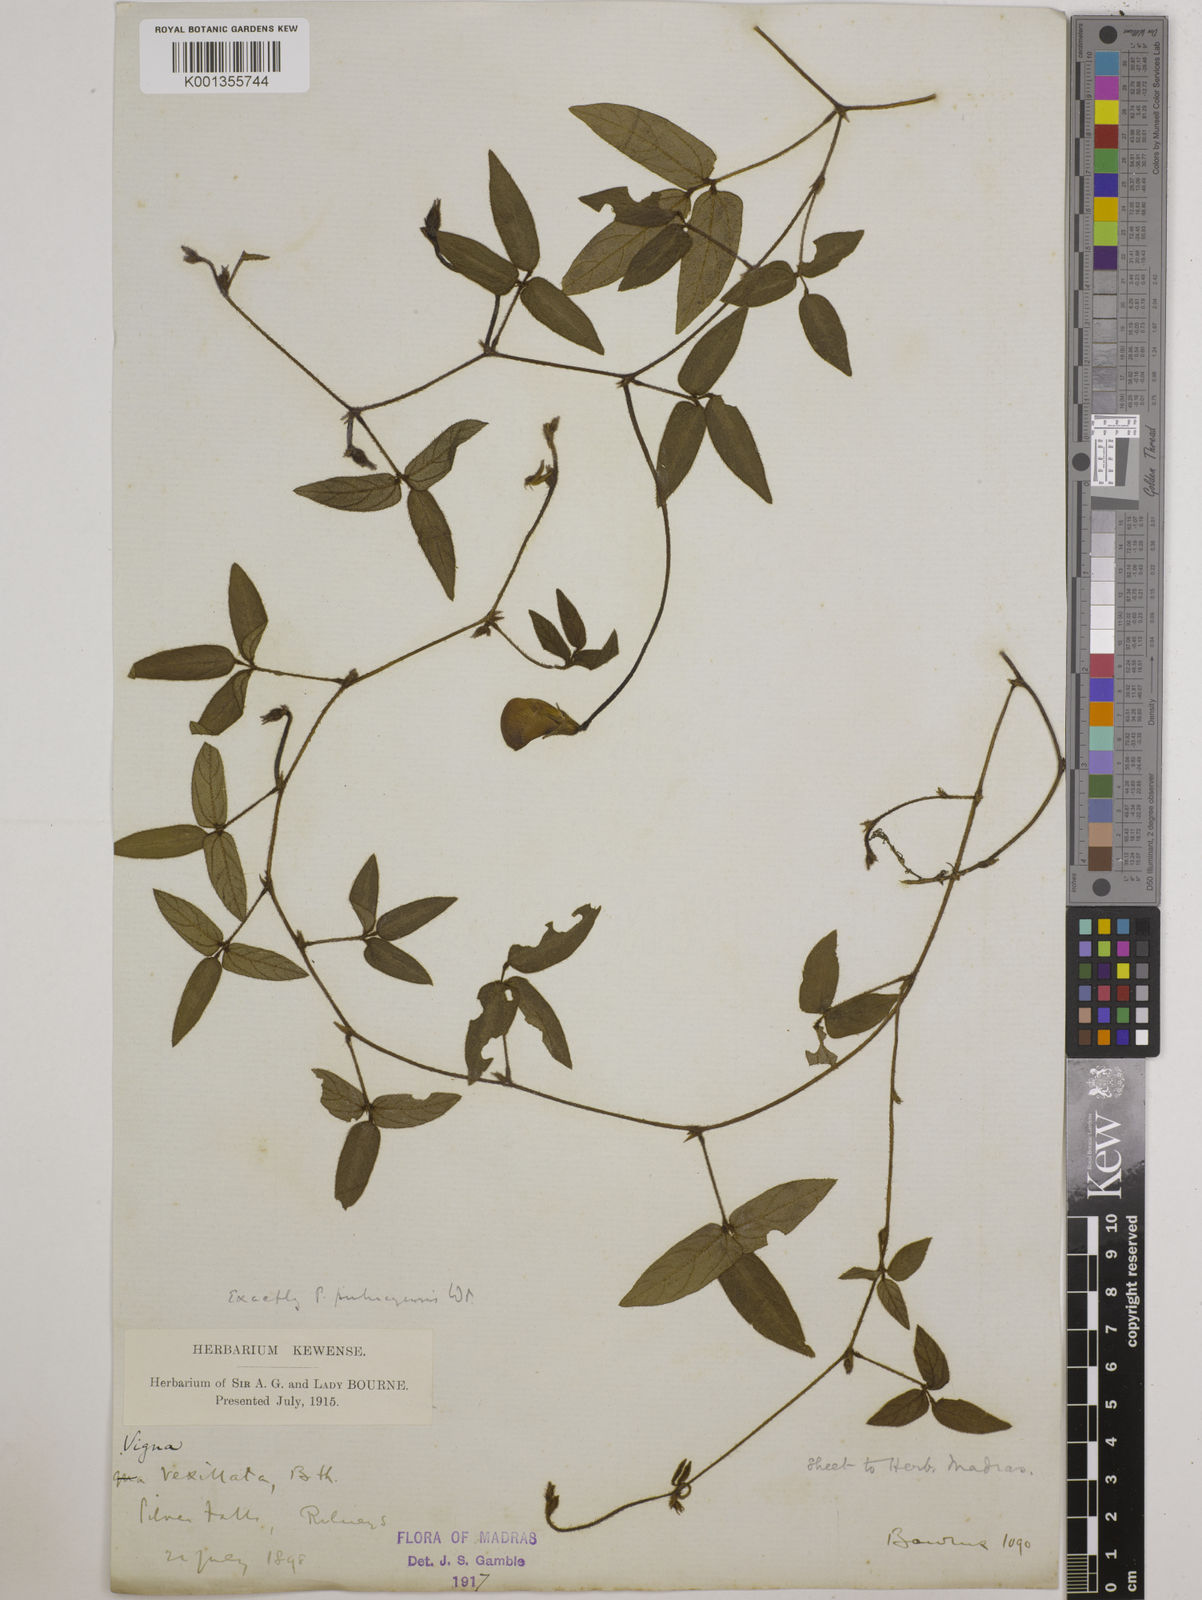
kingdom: Plantae
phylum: Tracheophyta
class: Magnoliopsida
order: Fabales
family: Fabaceae
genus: Vigna
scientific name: Vigna vexillata
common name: Zombi pea
